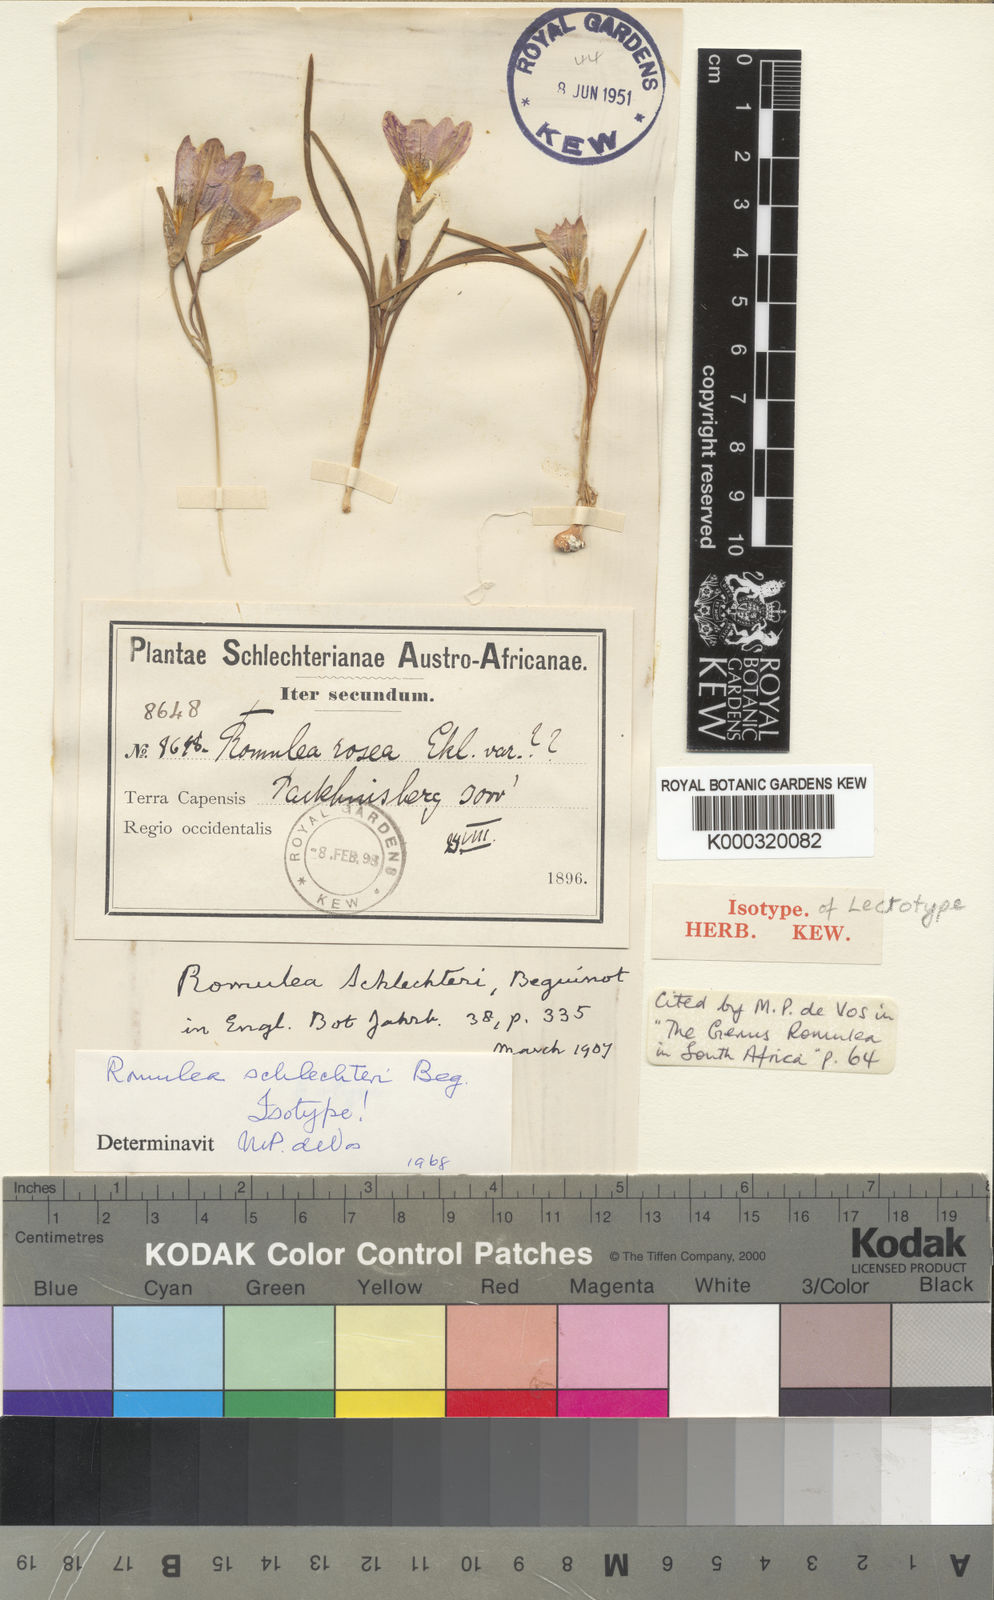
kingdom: Plantae
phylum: Tracheophyta
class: Liliopsida
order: Asparagales
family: Iridaceae
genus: Romulea
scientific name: Romulea
